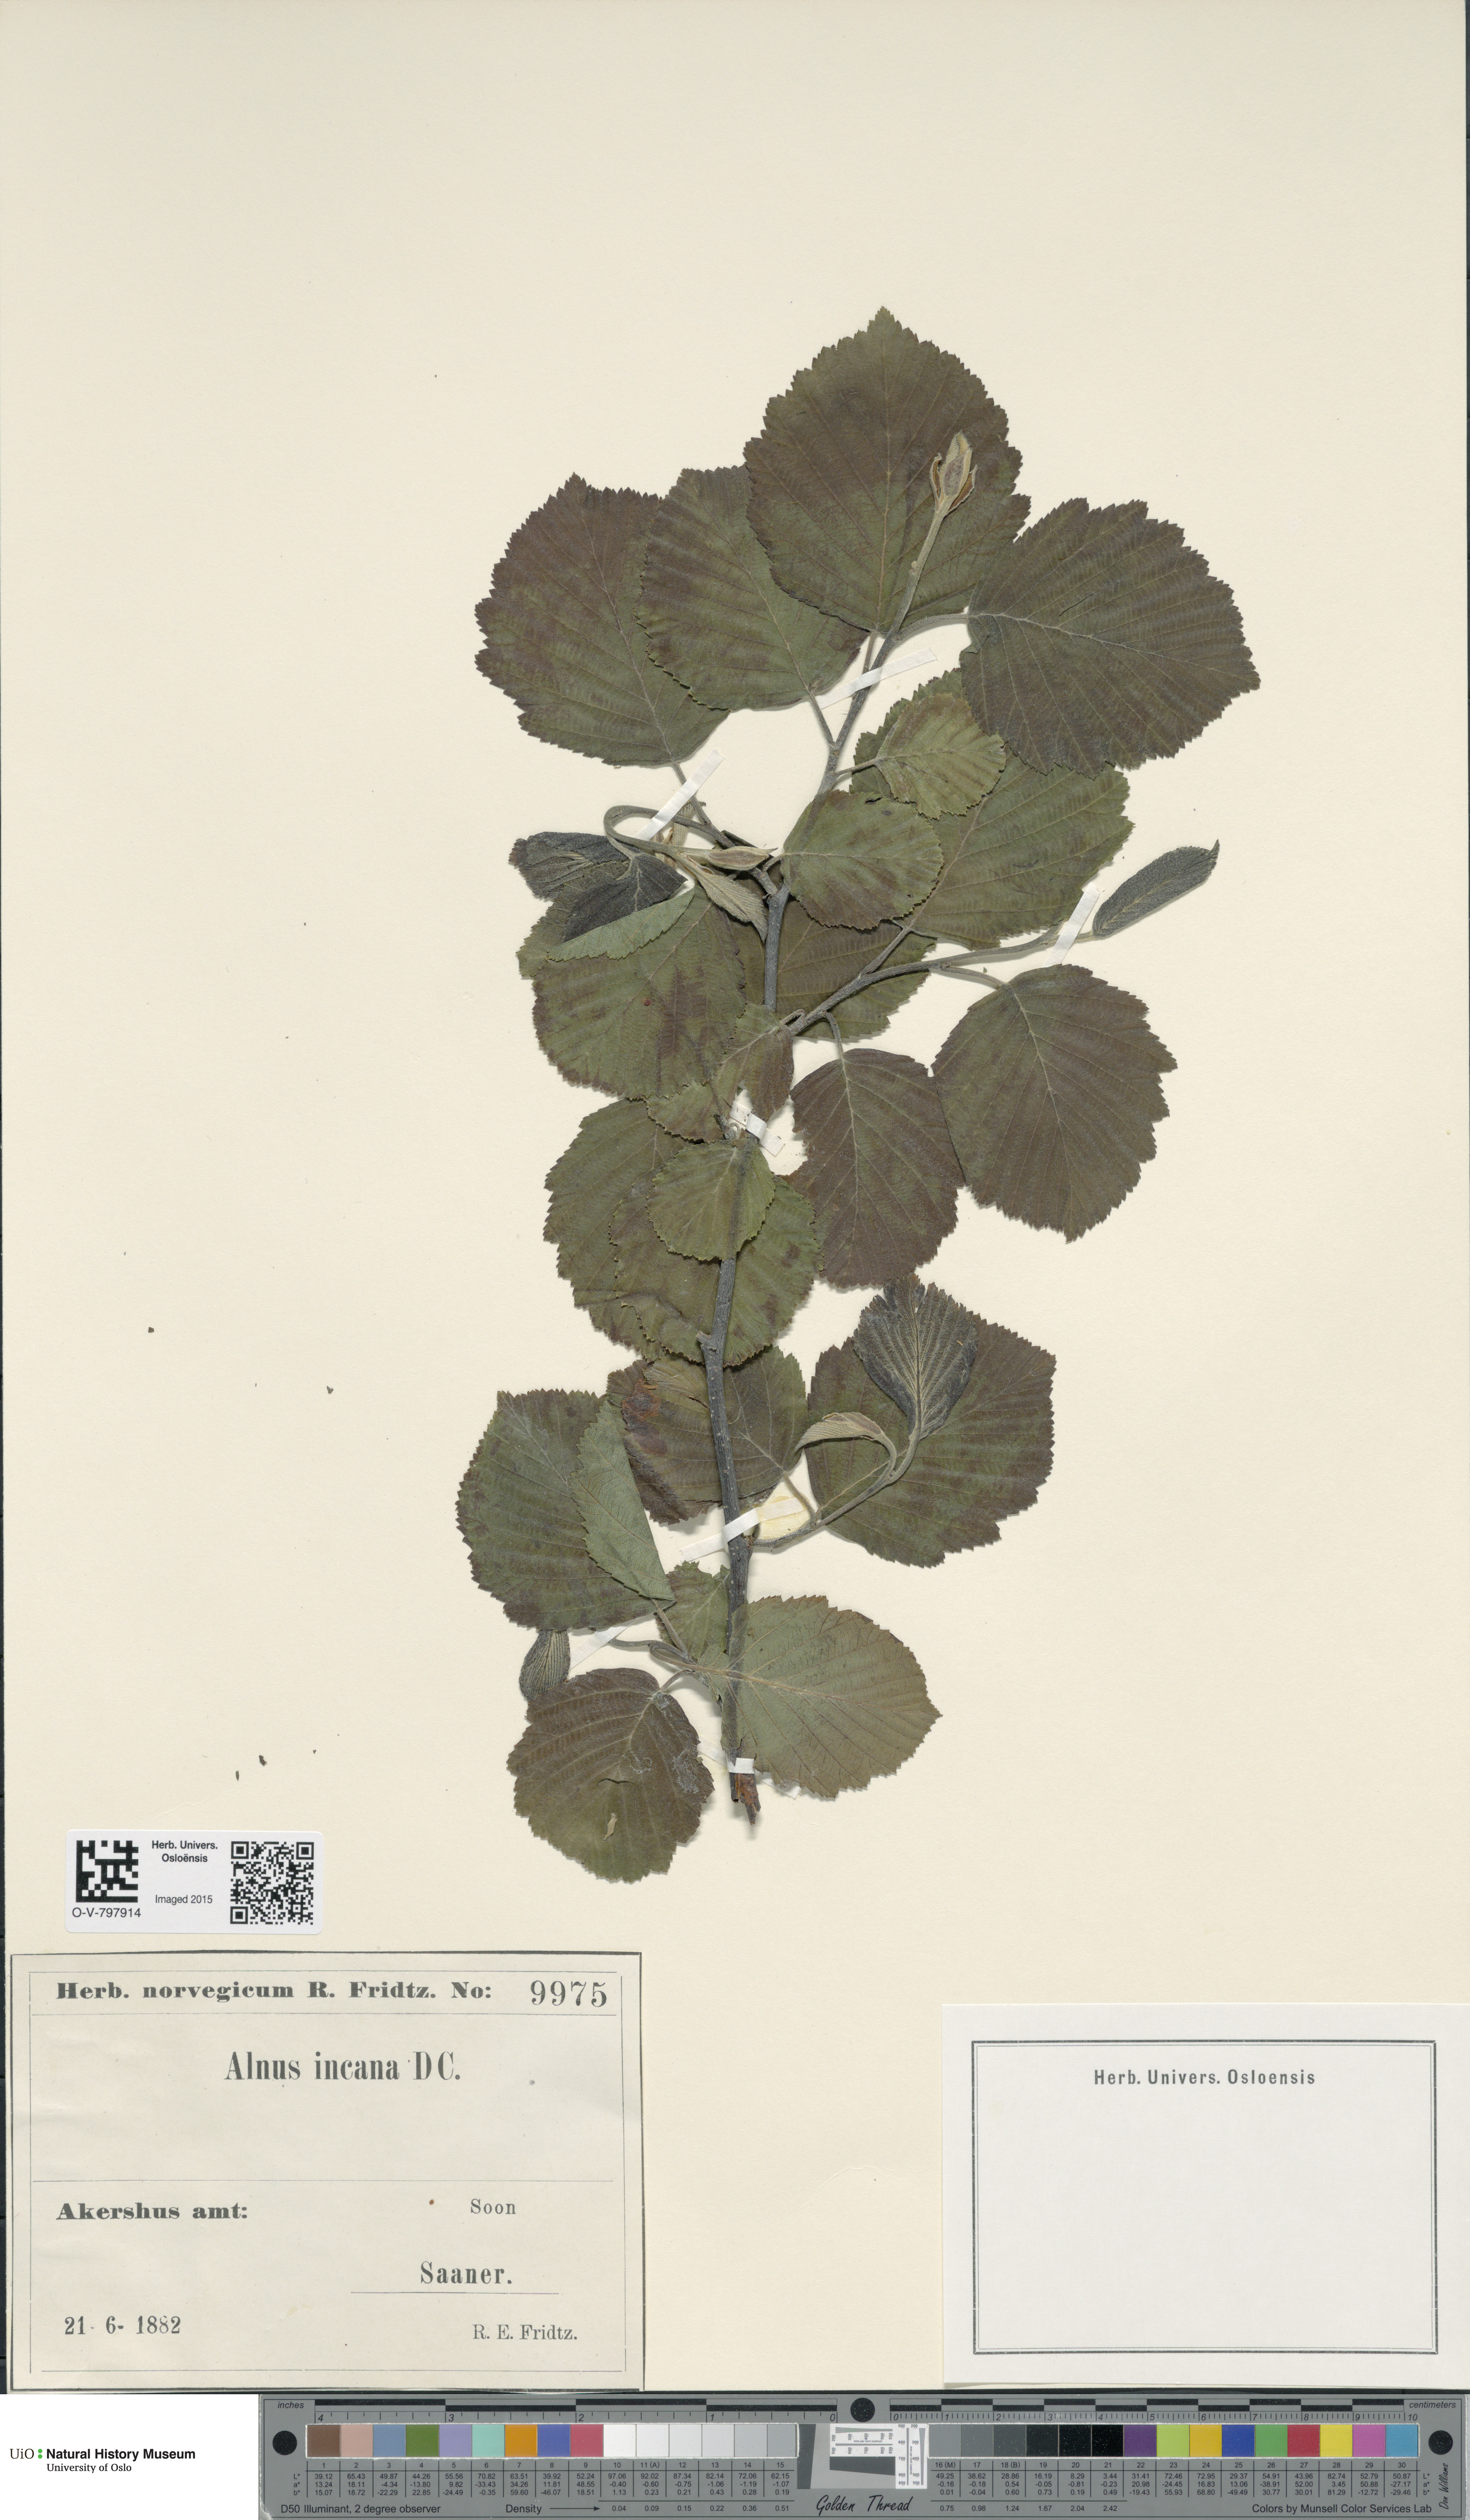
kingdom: Plantae
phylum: Tracheophyta
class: Magnoliopsida
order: Fagales
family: Betulaceae
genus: Alnus
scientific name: Alnus incana
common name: Grey alder
